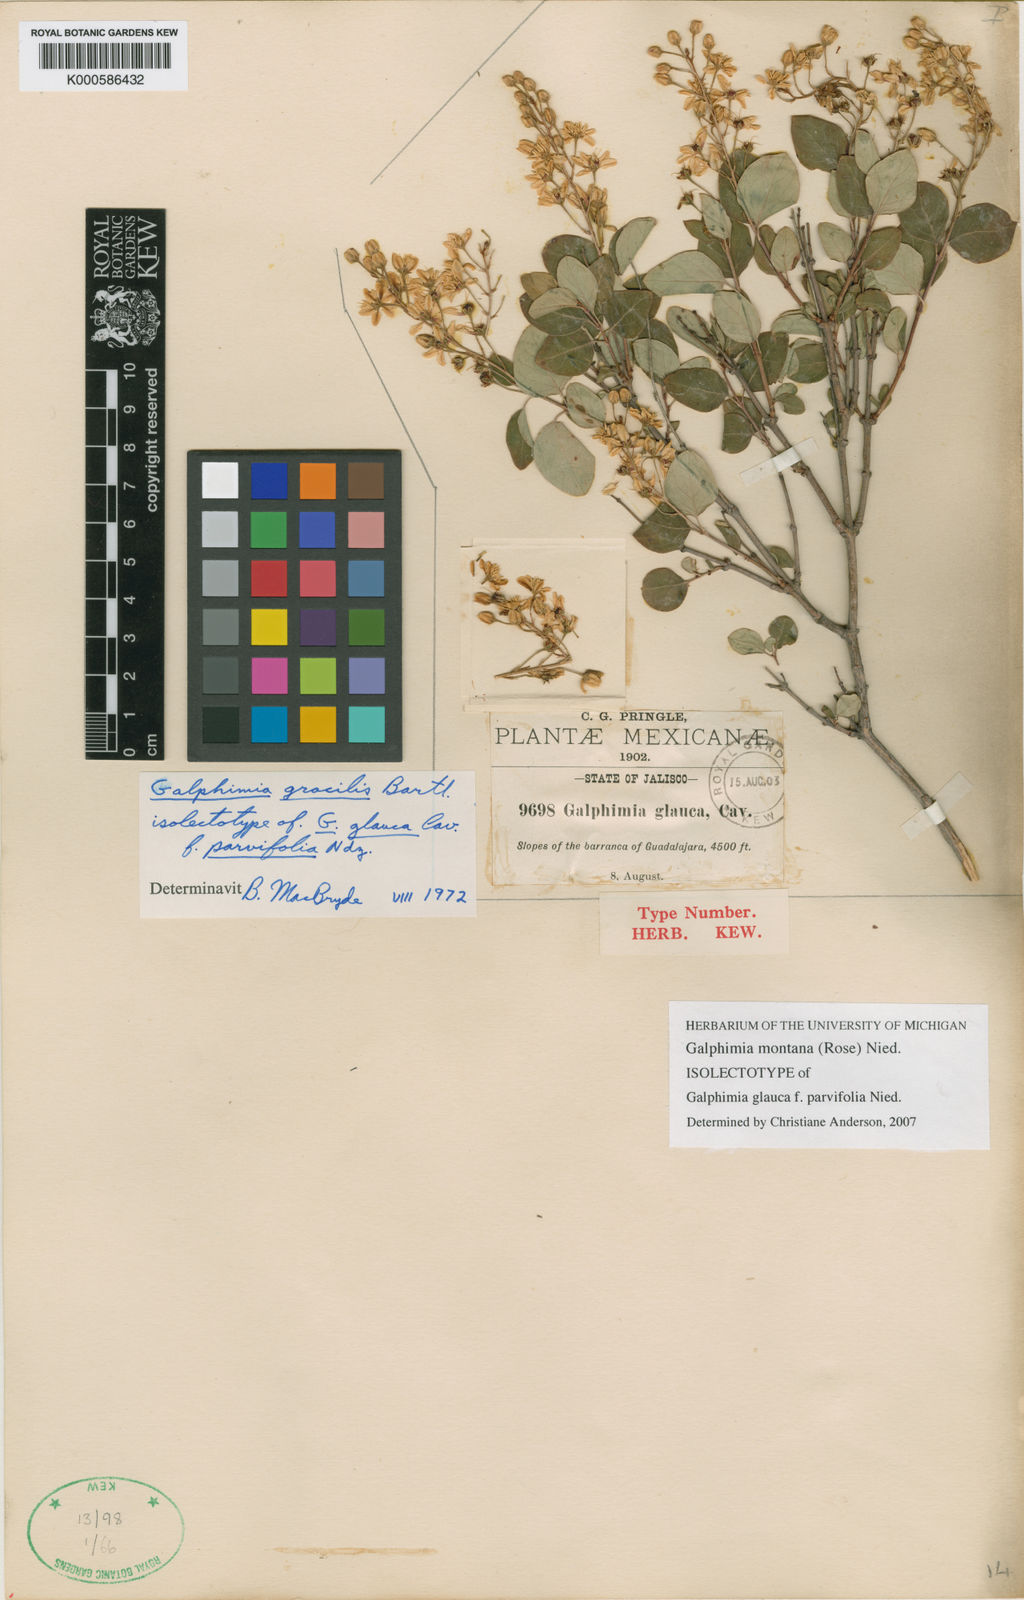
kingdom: Plantae
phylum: Tracheophyta
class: Magnoliopsida
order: Malpighiales
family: Malpighiaceae
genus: Galphimia
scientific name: Galphimia glauca
